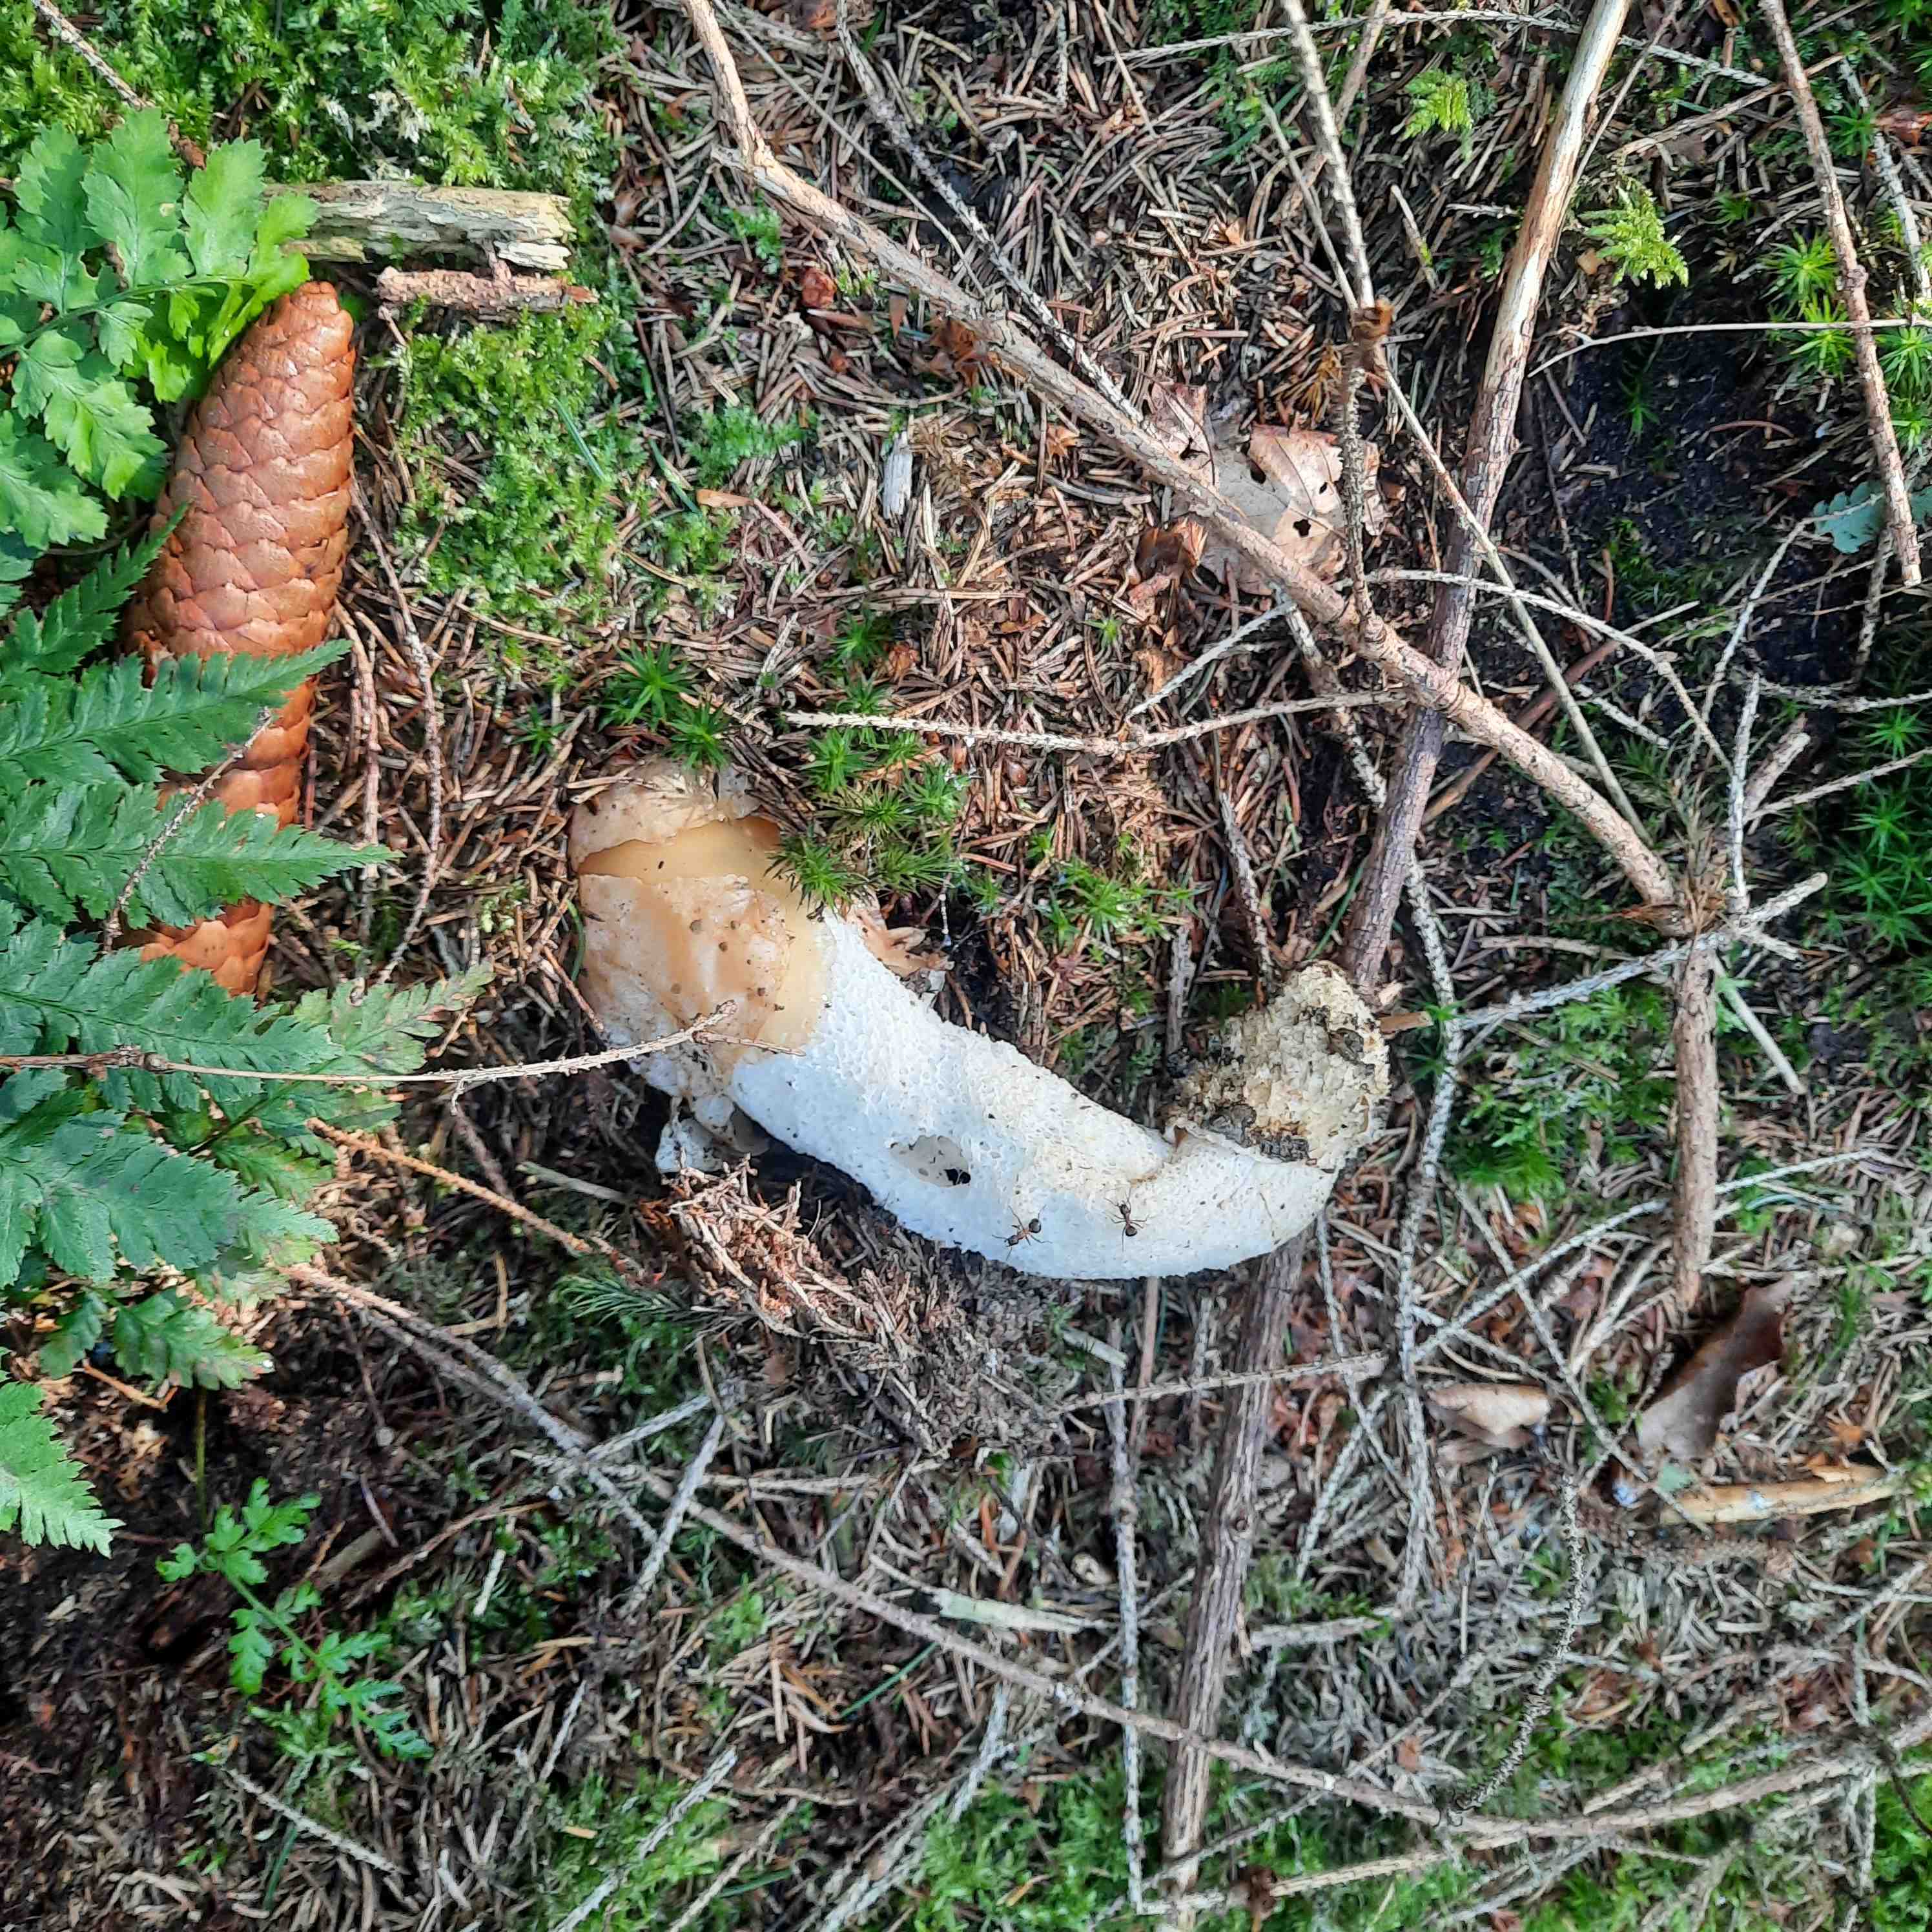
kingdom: Fungi
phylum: Basidiomycota
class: Agaricomycetes
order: Phallales
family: Phallaceae
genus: Phallus
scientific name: Phallus impudicus
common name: almindelig stinksvamp
